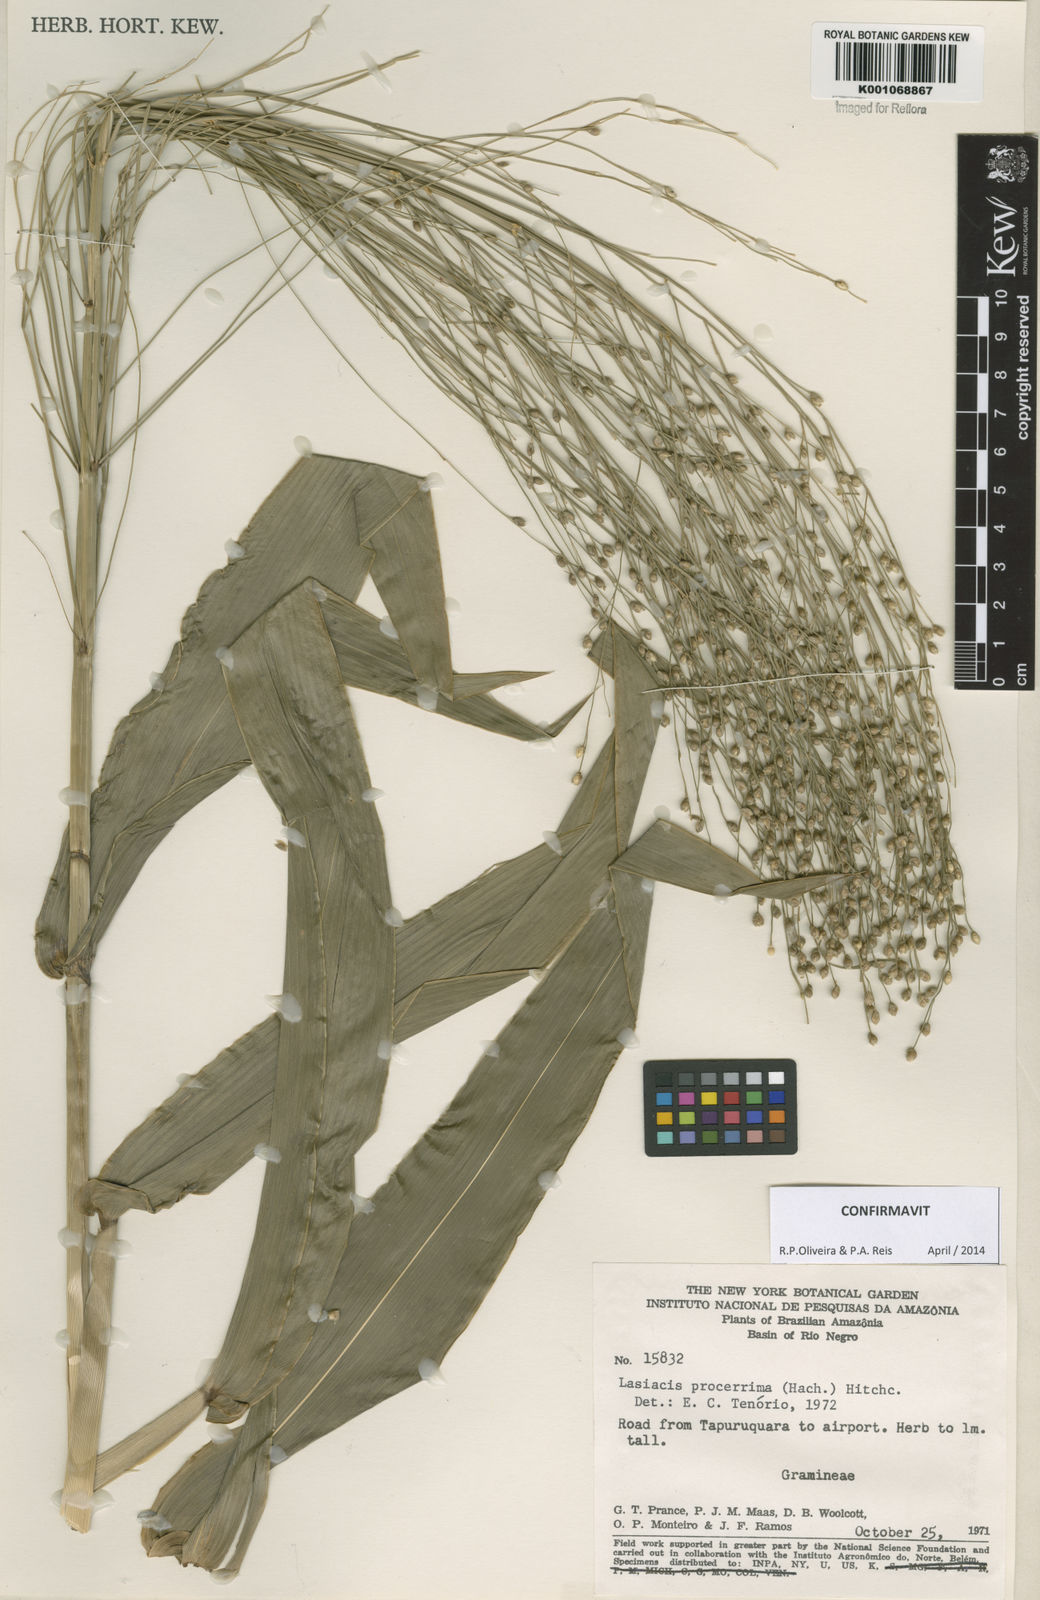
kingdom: Plantae
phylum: Tracheophyta
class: Liliopsida
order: Poales
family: Poaceae
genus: Lasiacis
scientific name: Lasiacis
